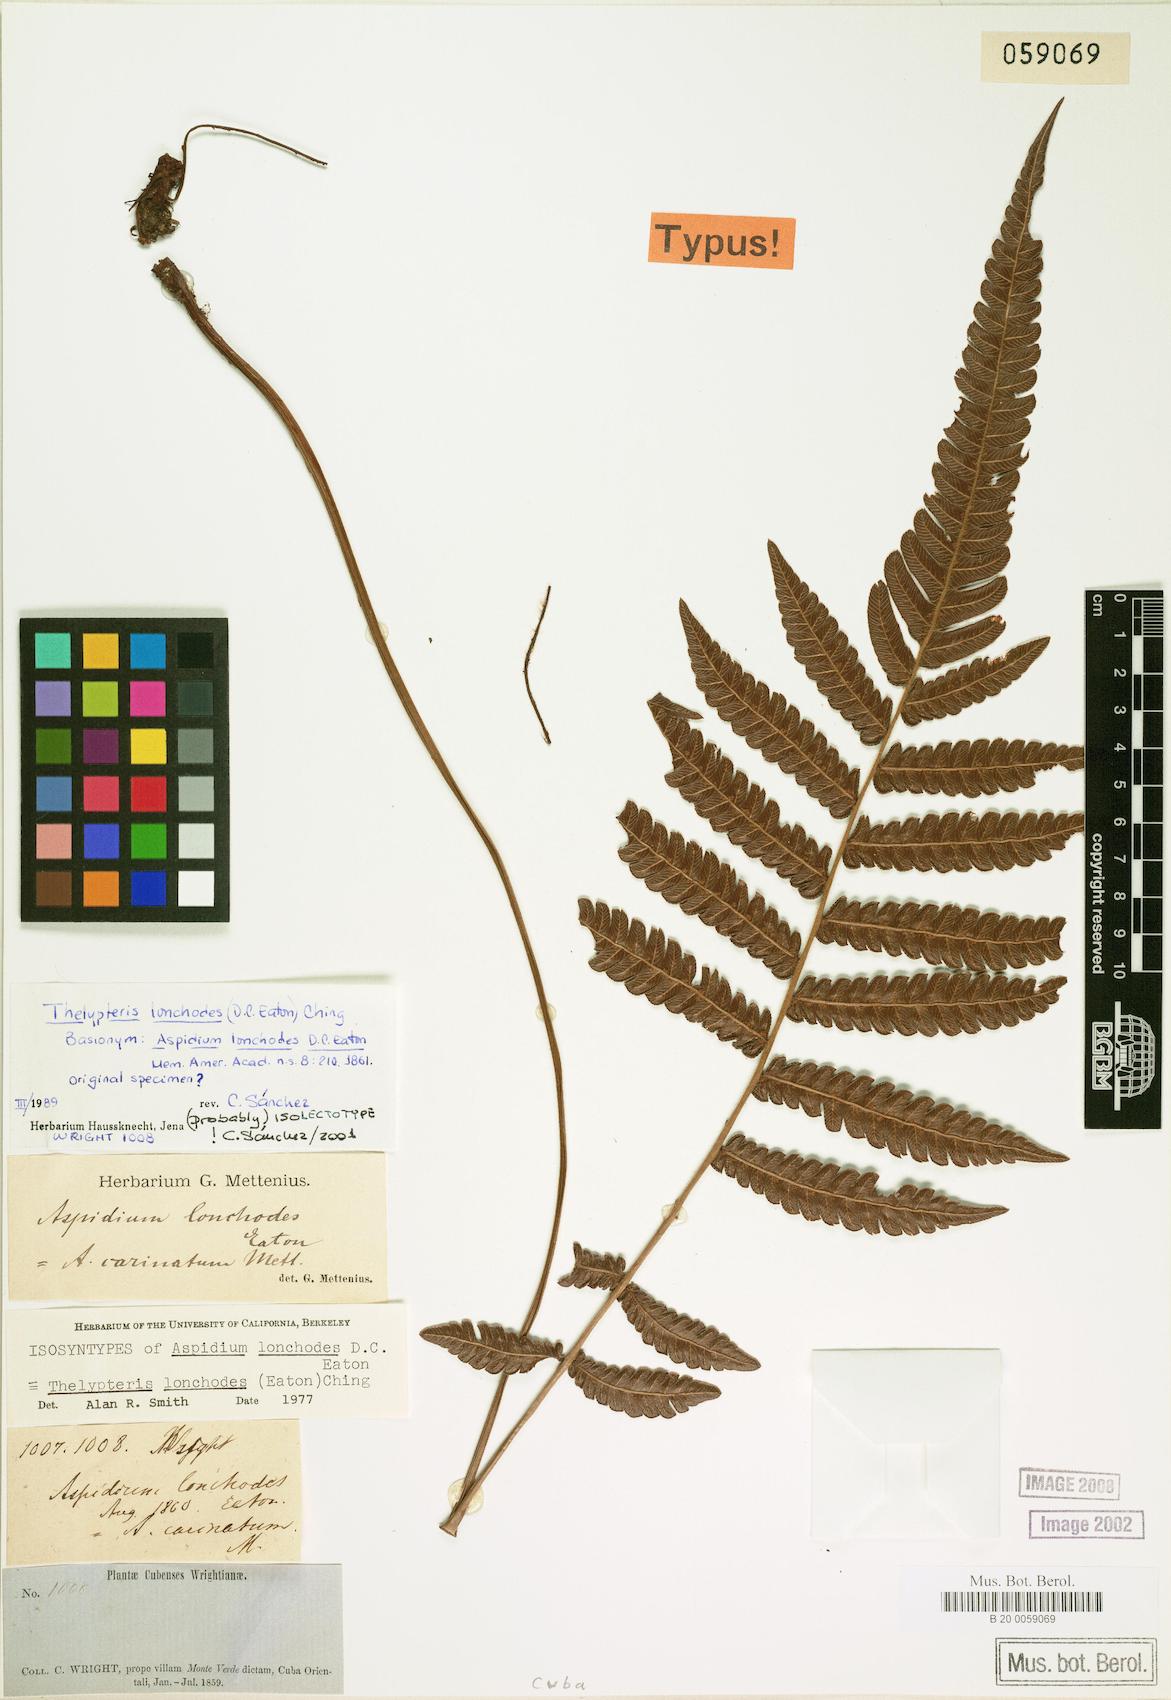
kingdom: Plantae
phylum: Tracheophyta
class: Polypodiopsida
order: Polypodiales
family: Thelypteridaceae
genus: Steiropteris
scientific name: Steiropteris lonchodes
